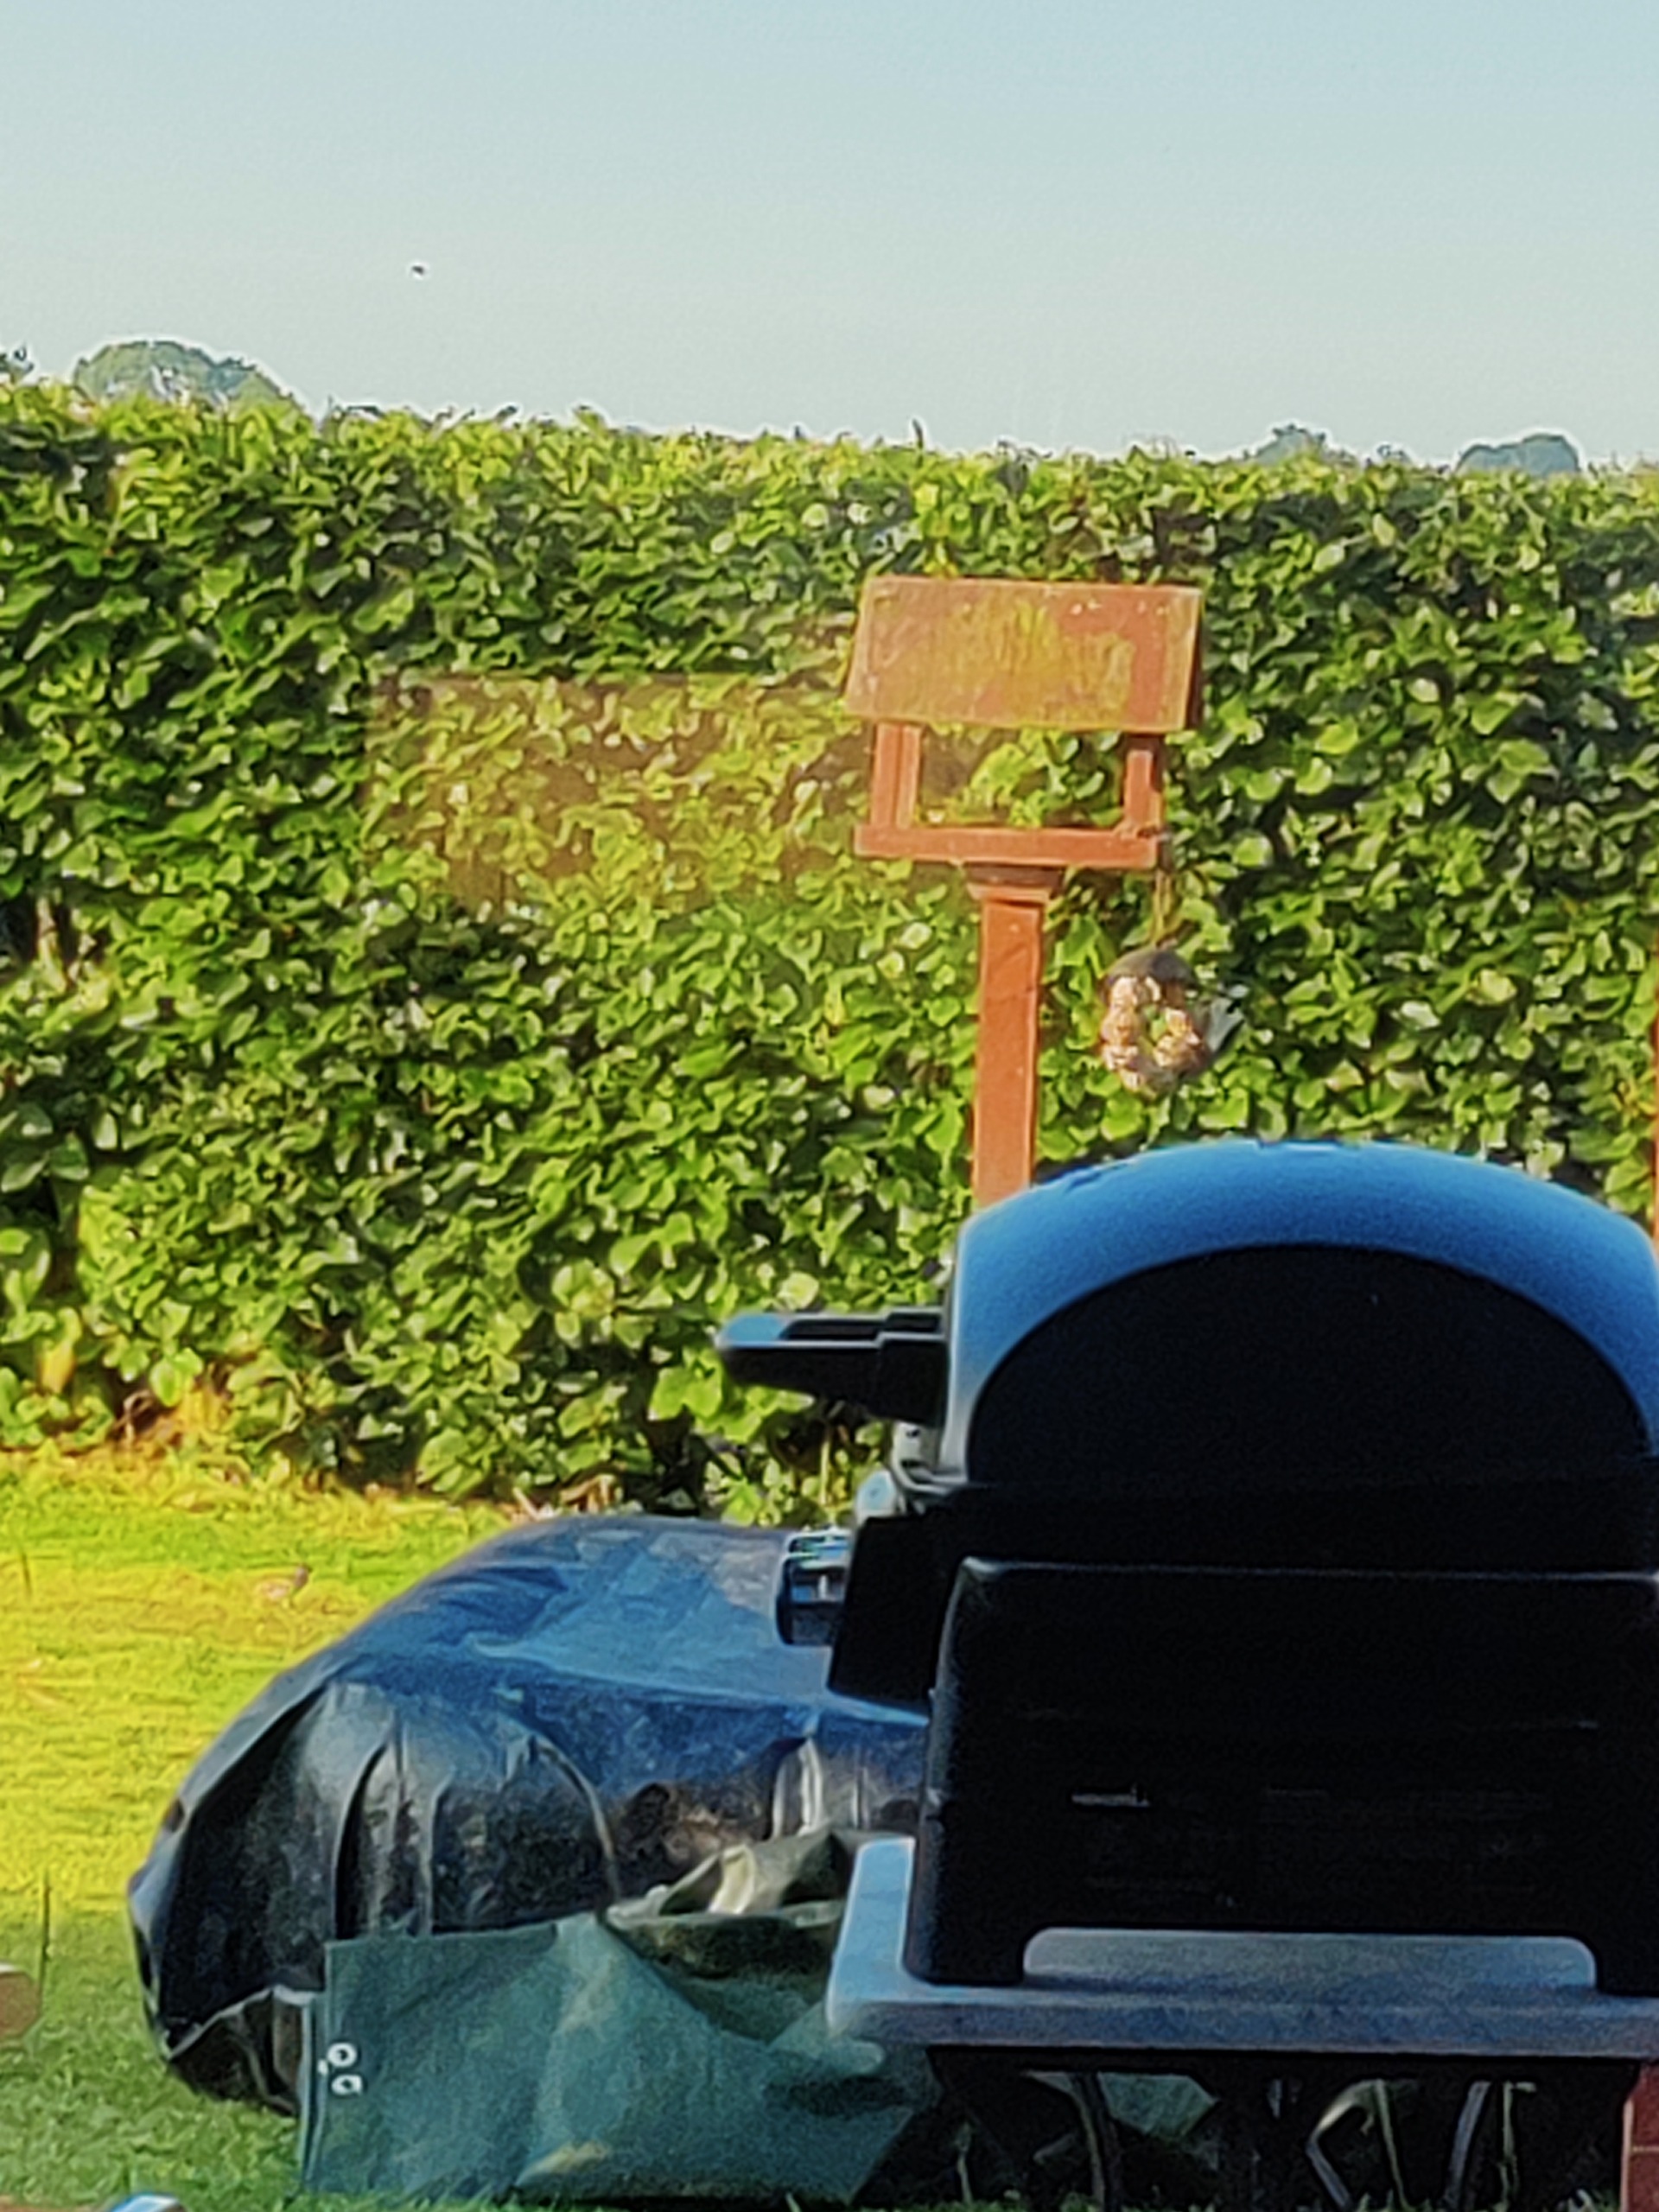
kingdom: Animalia
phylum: Chordata
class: Aves
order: Piciformes
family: Picidae
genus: Dendrocopos
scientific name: Dendrocopos major
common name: Stor flagspætte
